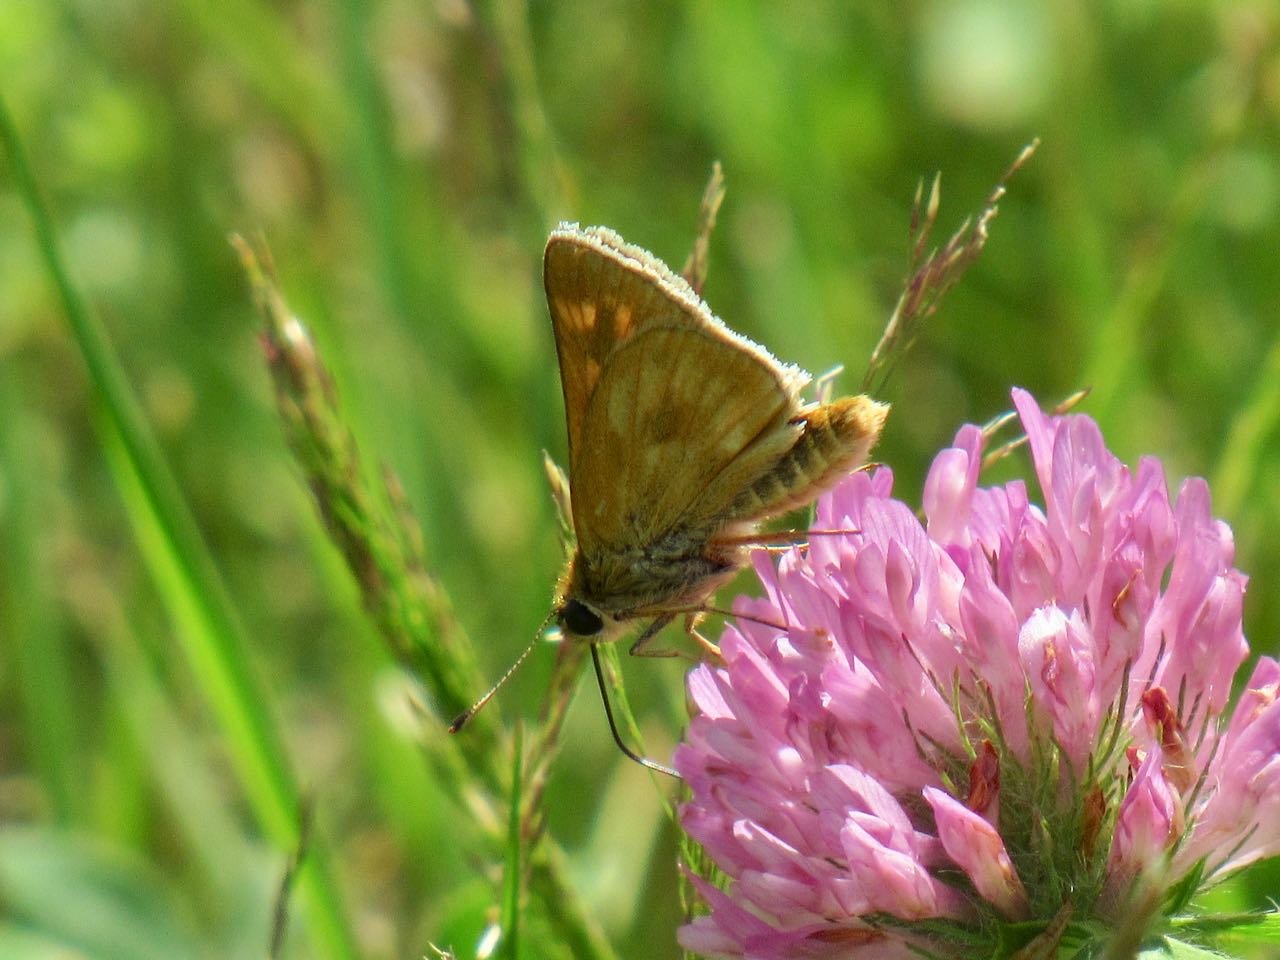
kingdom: Animalia
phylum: Arthropoda
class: Insecta
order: Lepidoptera
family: Hesperiidae
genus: Polites
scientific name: Polites
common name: Long Dash Skipper
